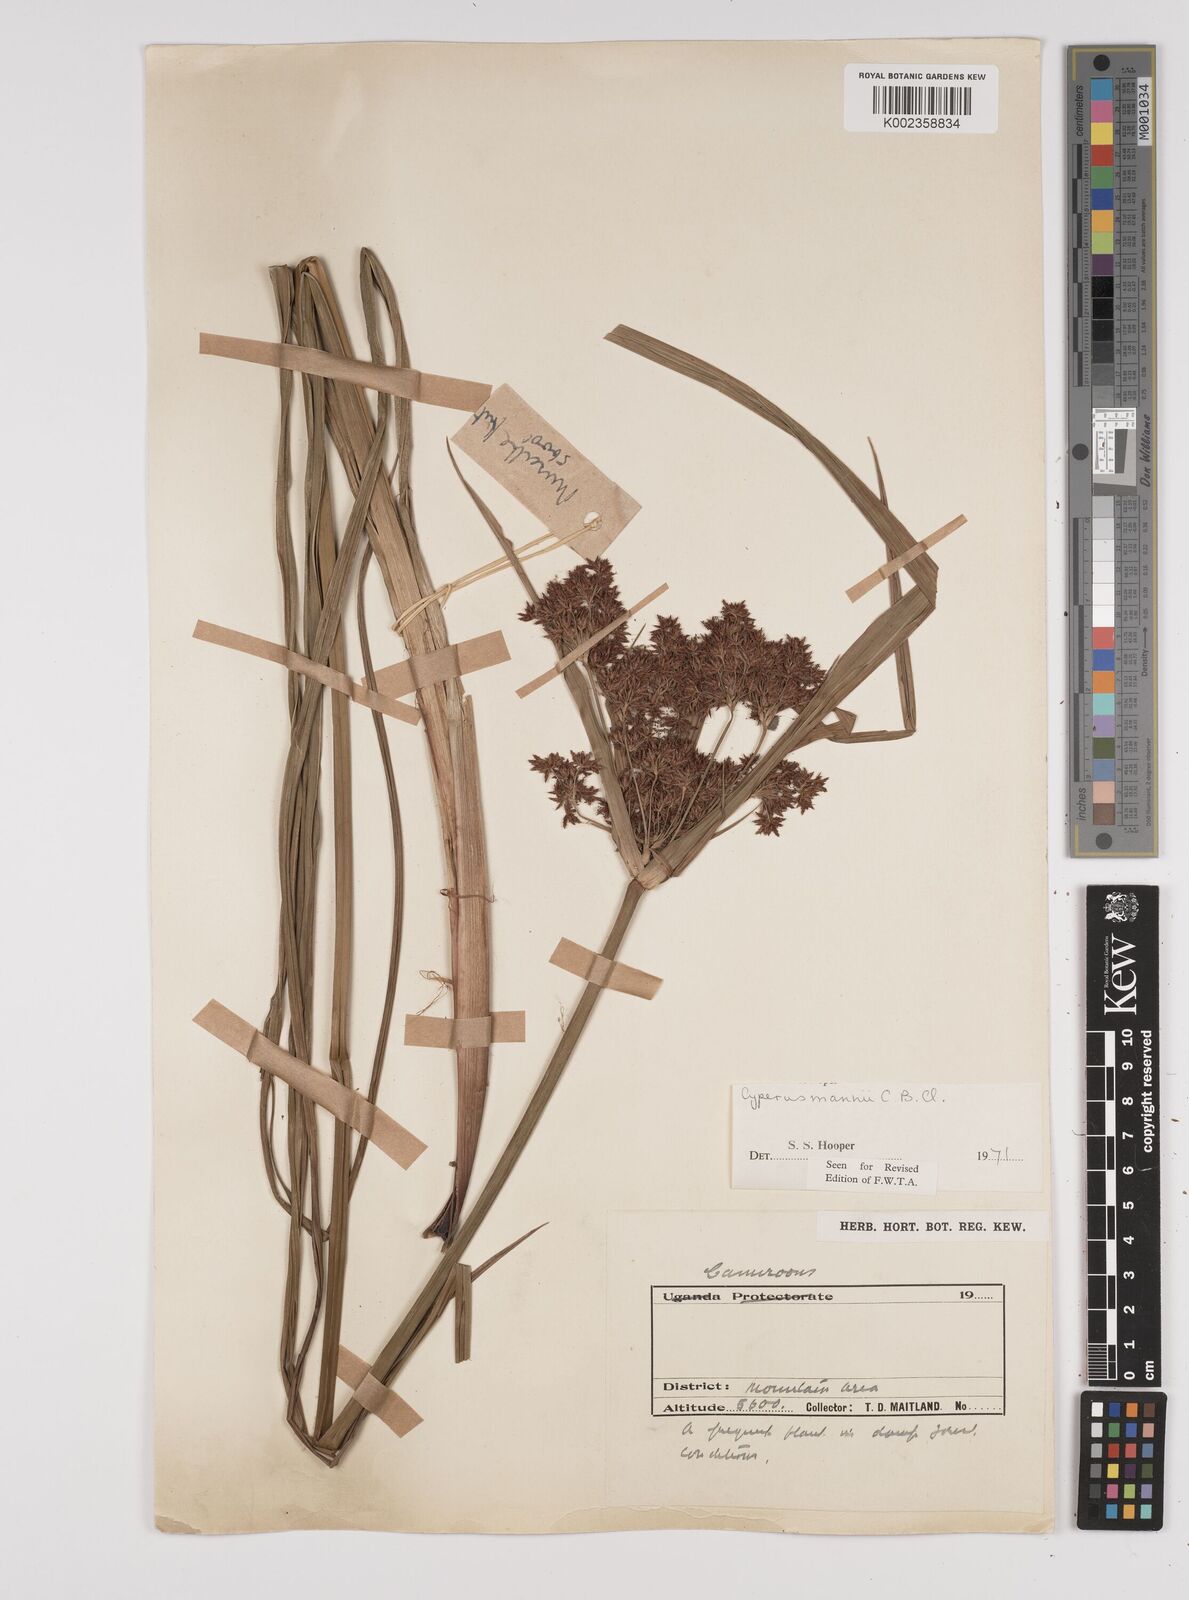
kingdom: Plantae
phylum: Tracheophyta
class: Liliopsida
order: Poales
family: Cyperaceae
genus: Cyperus
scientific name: Cyperus baronii
